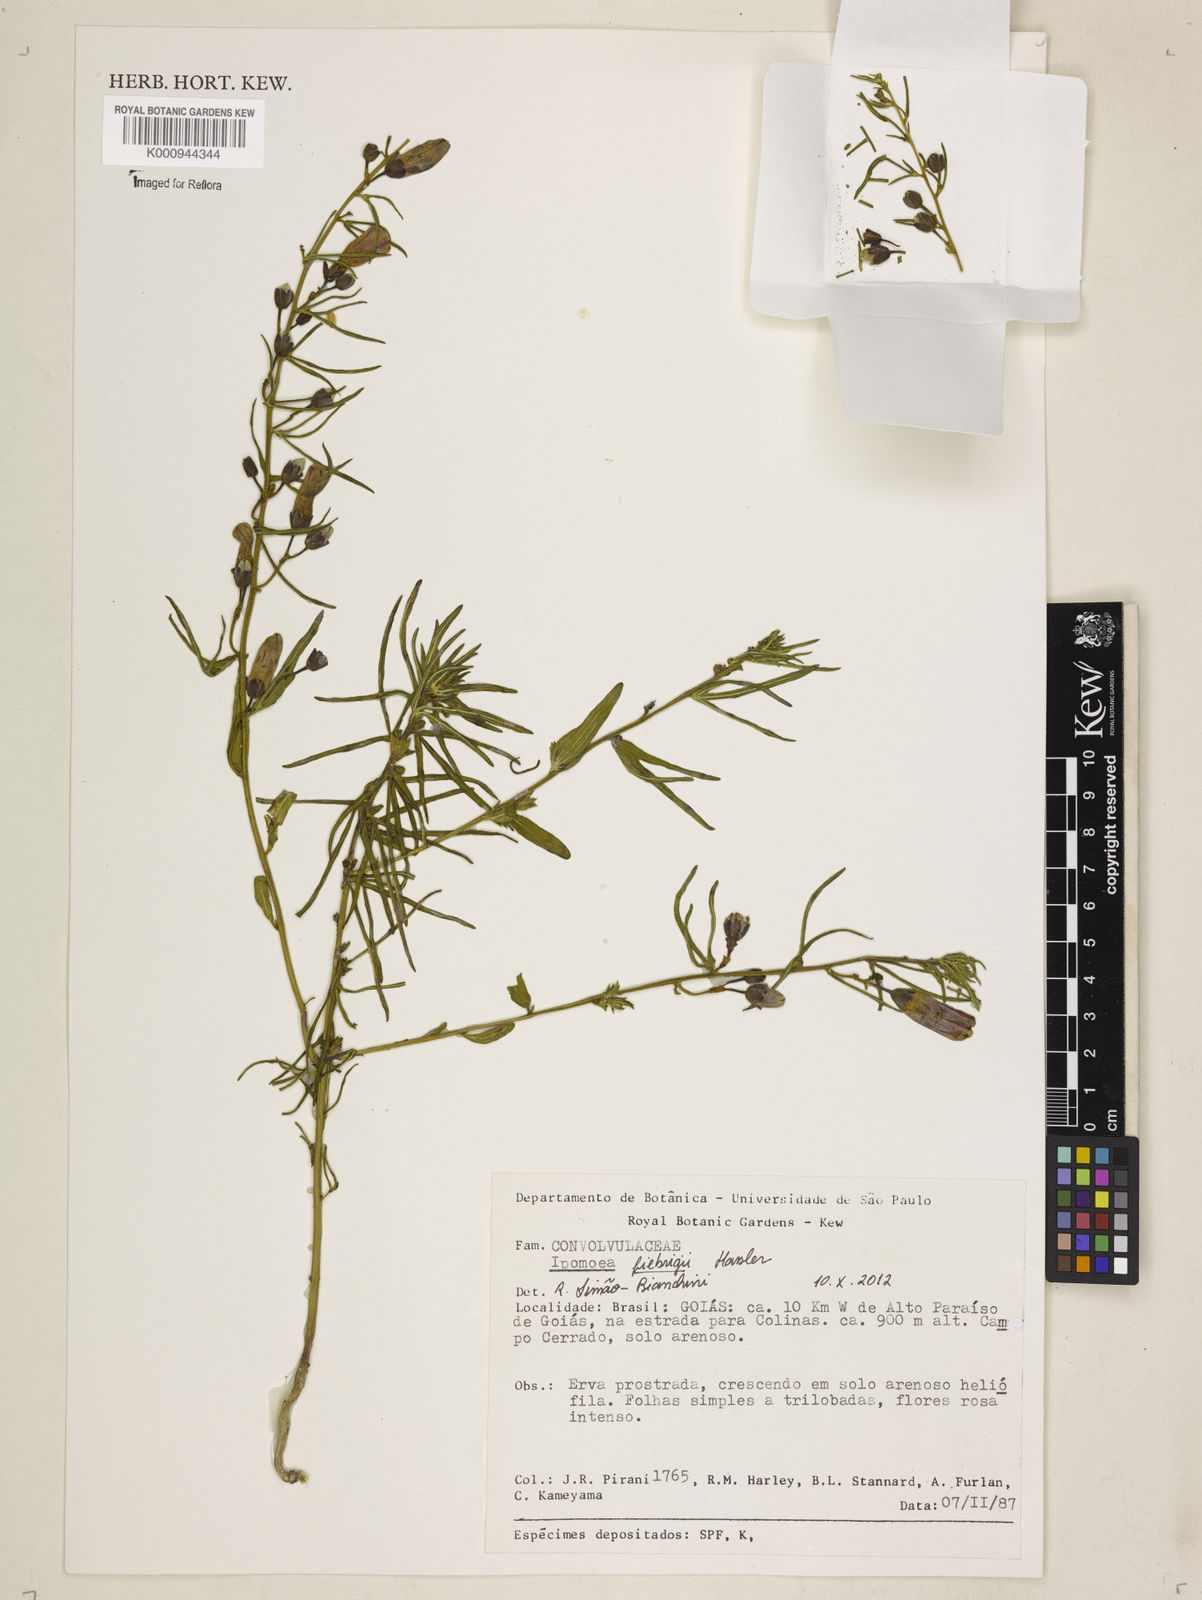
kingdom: Plantae
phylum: Tracheophyta
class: Magnoliopsida
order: Solanales
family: Convolvulaceae
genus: Ipomoea
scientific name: Ipomoea angustissima
